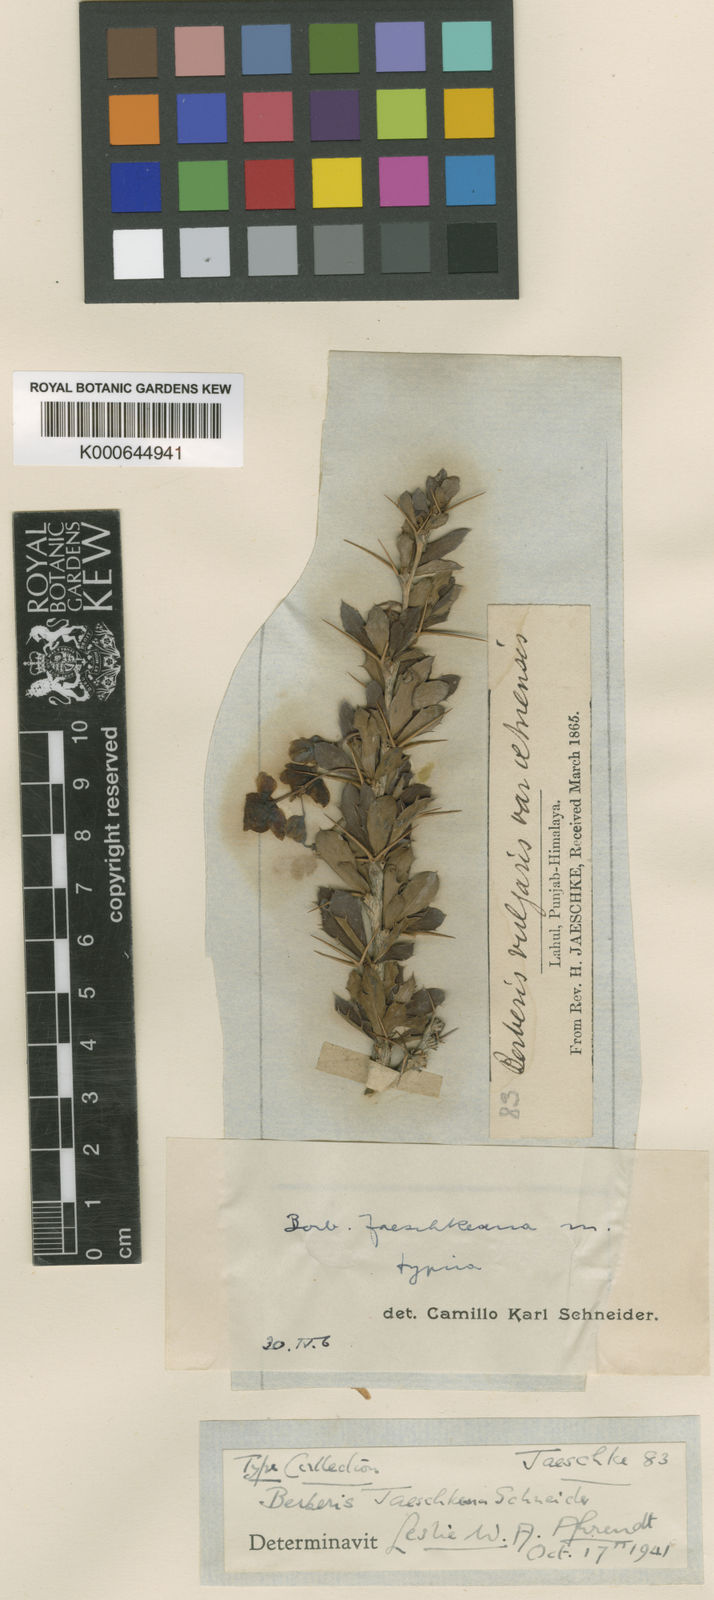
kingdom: Plantae
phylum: Tracheophyta
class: Magnoliopsida
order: Ranunculales
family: Berberidaceae
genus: Berberis
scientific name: Berberis jaeschkeana
